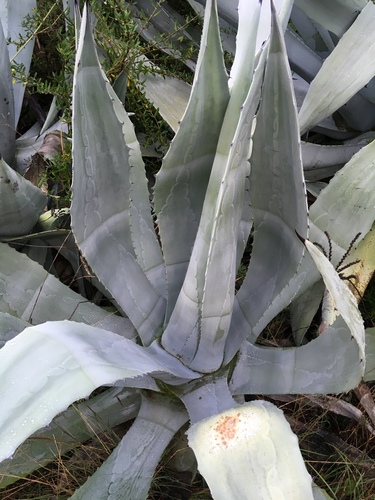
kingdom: Plantae
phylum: Tracheophyta
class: Liliopsida
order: Asparagales
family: Asparagaceae
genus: Agave
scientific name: Agave americana
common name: Centuryplant
